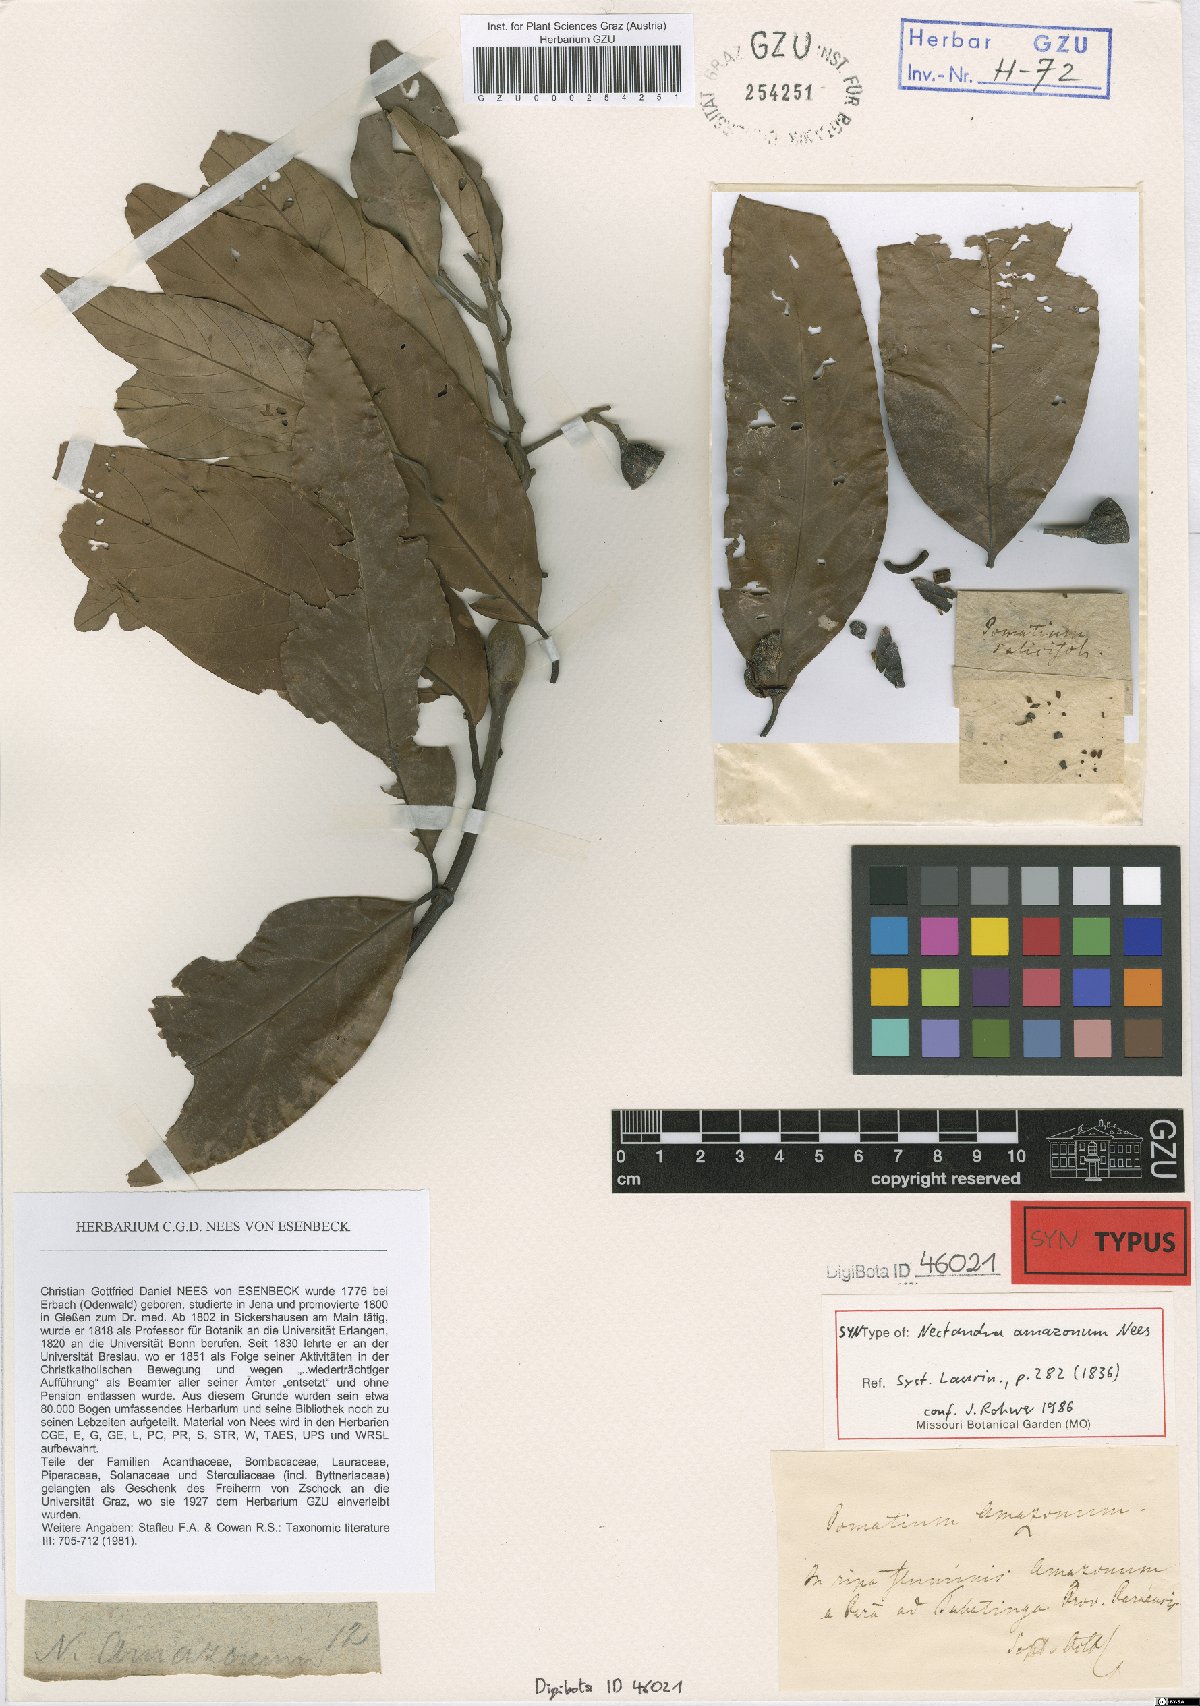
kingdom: Plantae
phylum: Tracheophyta
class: Magnoliopsida
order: Laurales
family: Lauraceae
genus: Nectandra
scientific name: Nectandra amazonum
